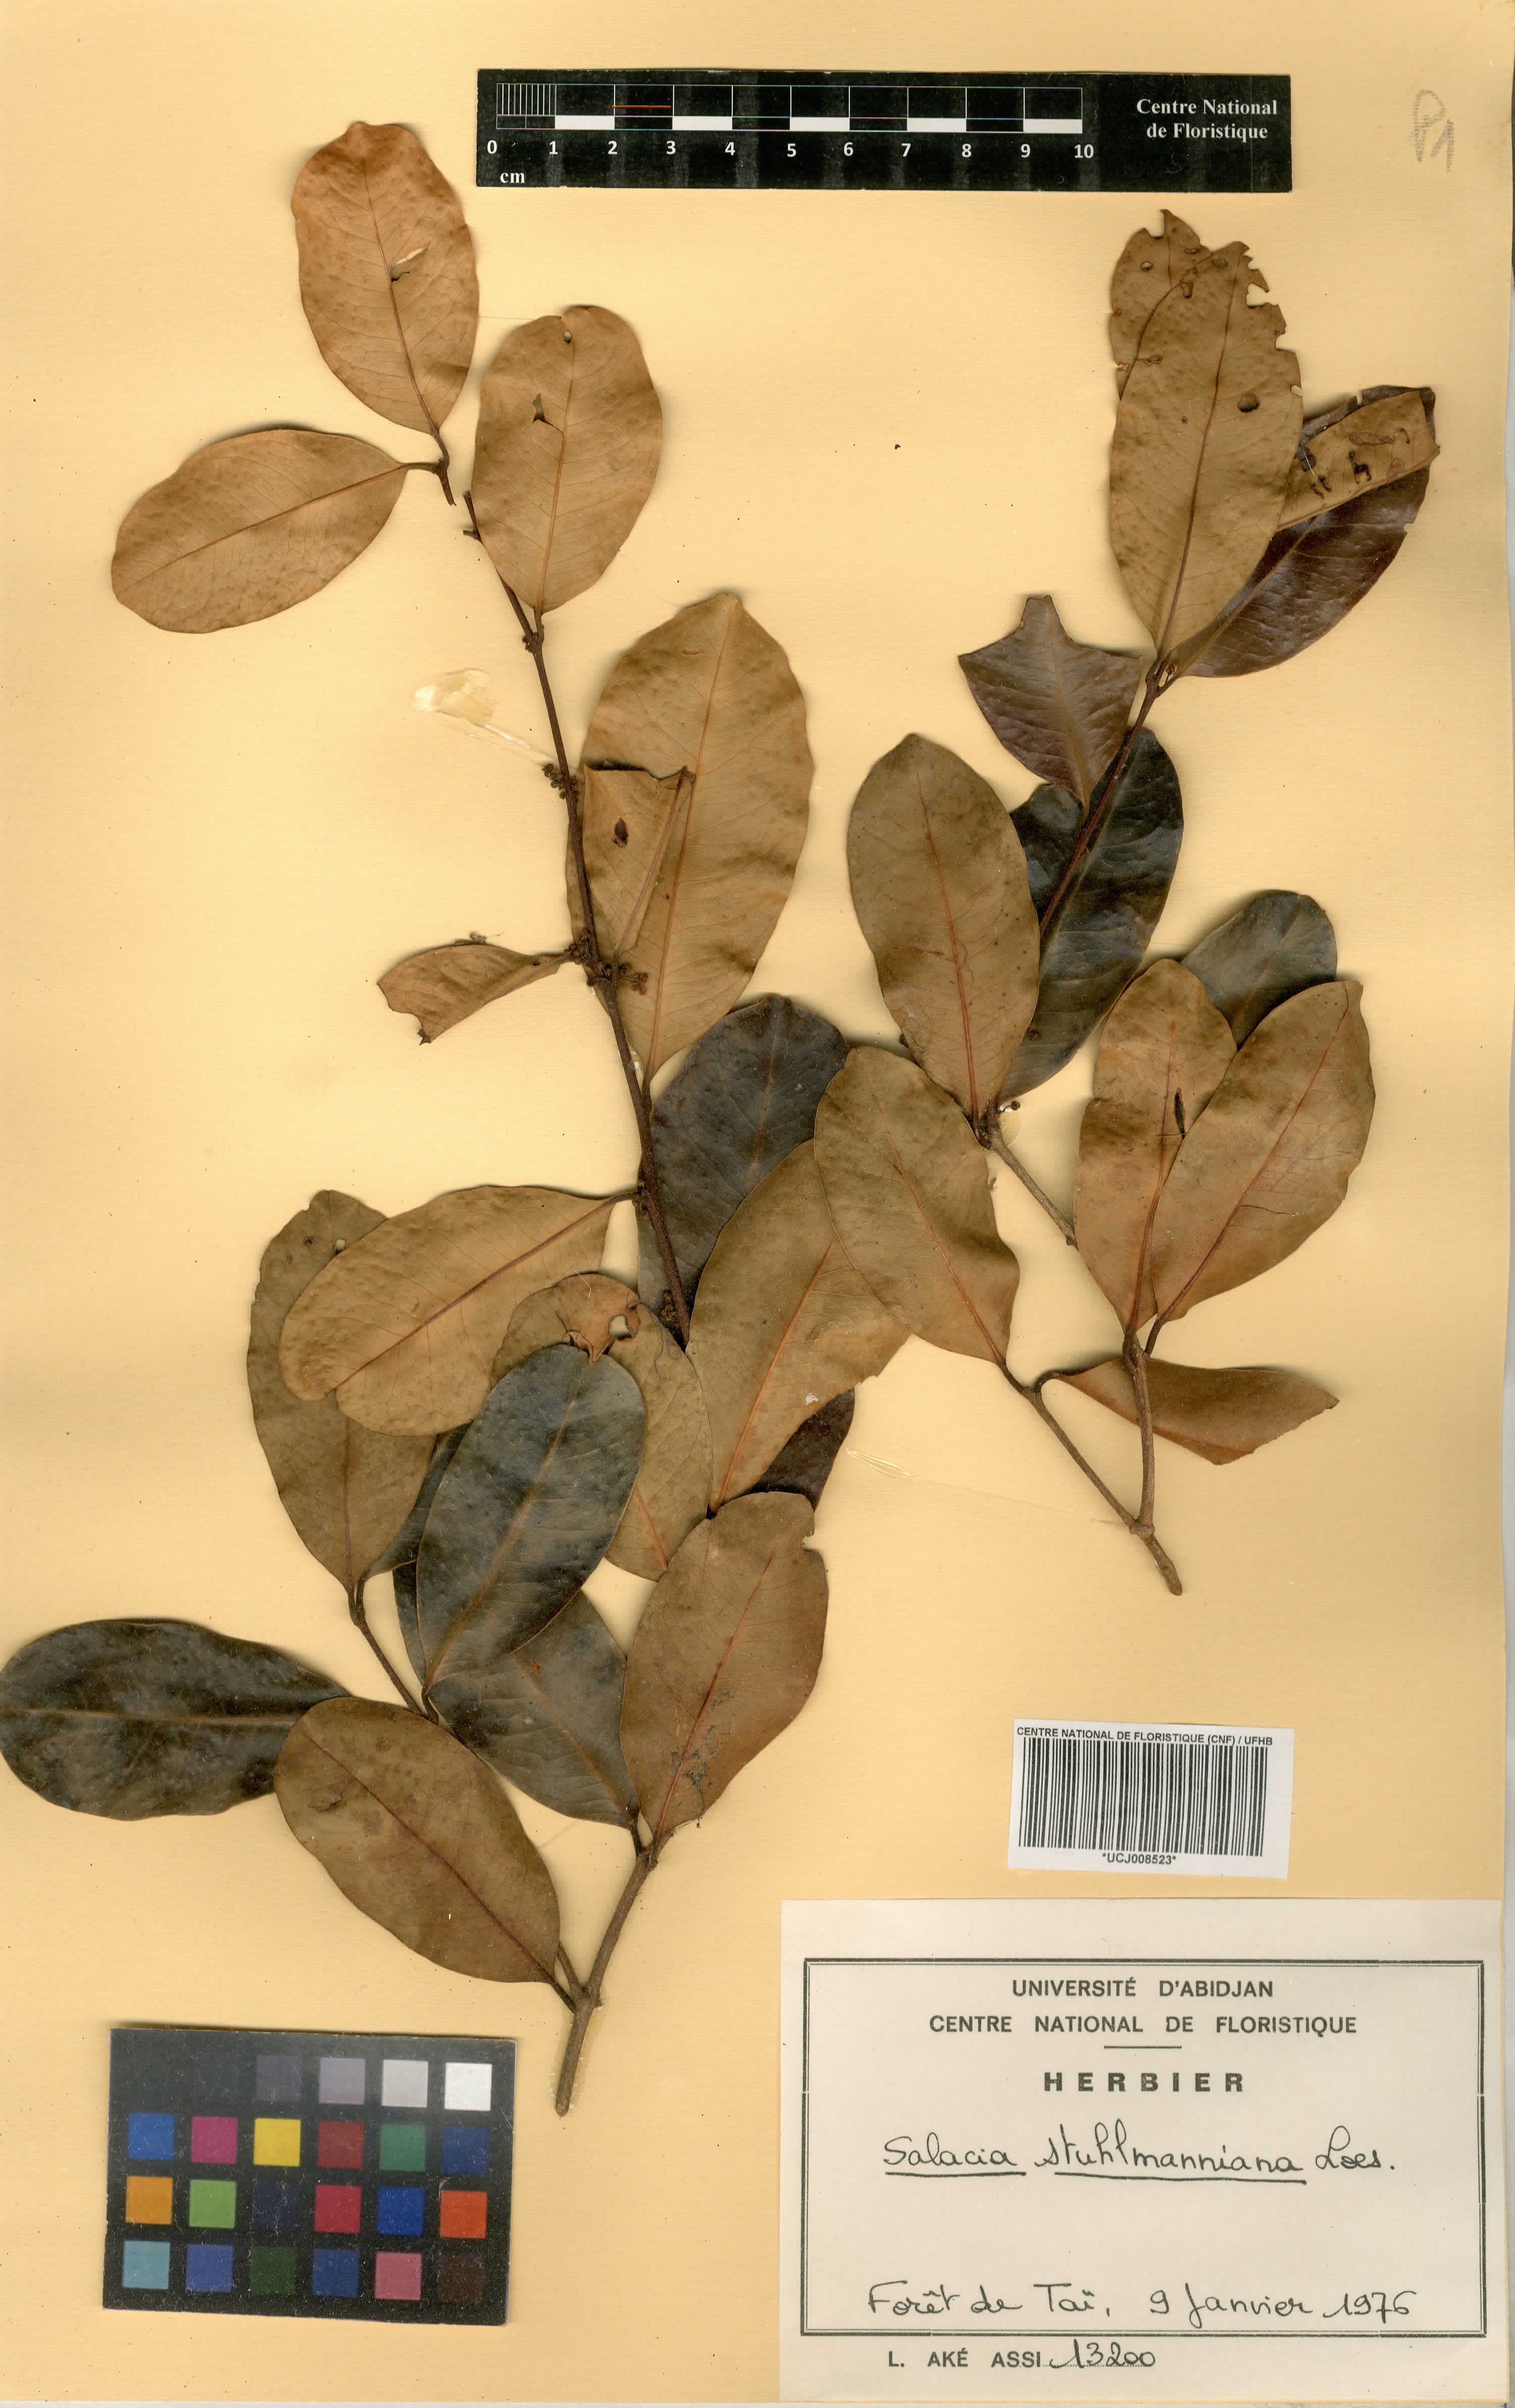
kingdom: Plantae
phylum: Tracheophyta
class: Magnoliopsida
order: Celastrales
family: Celastraceae
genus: Salacia
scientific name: Salacia stuhlmanniana
